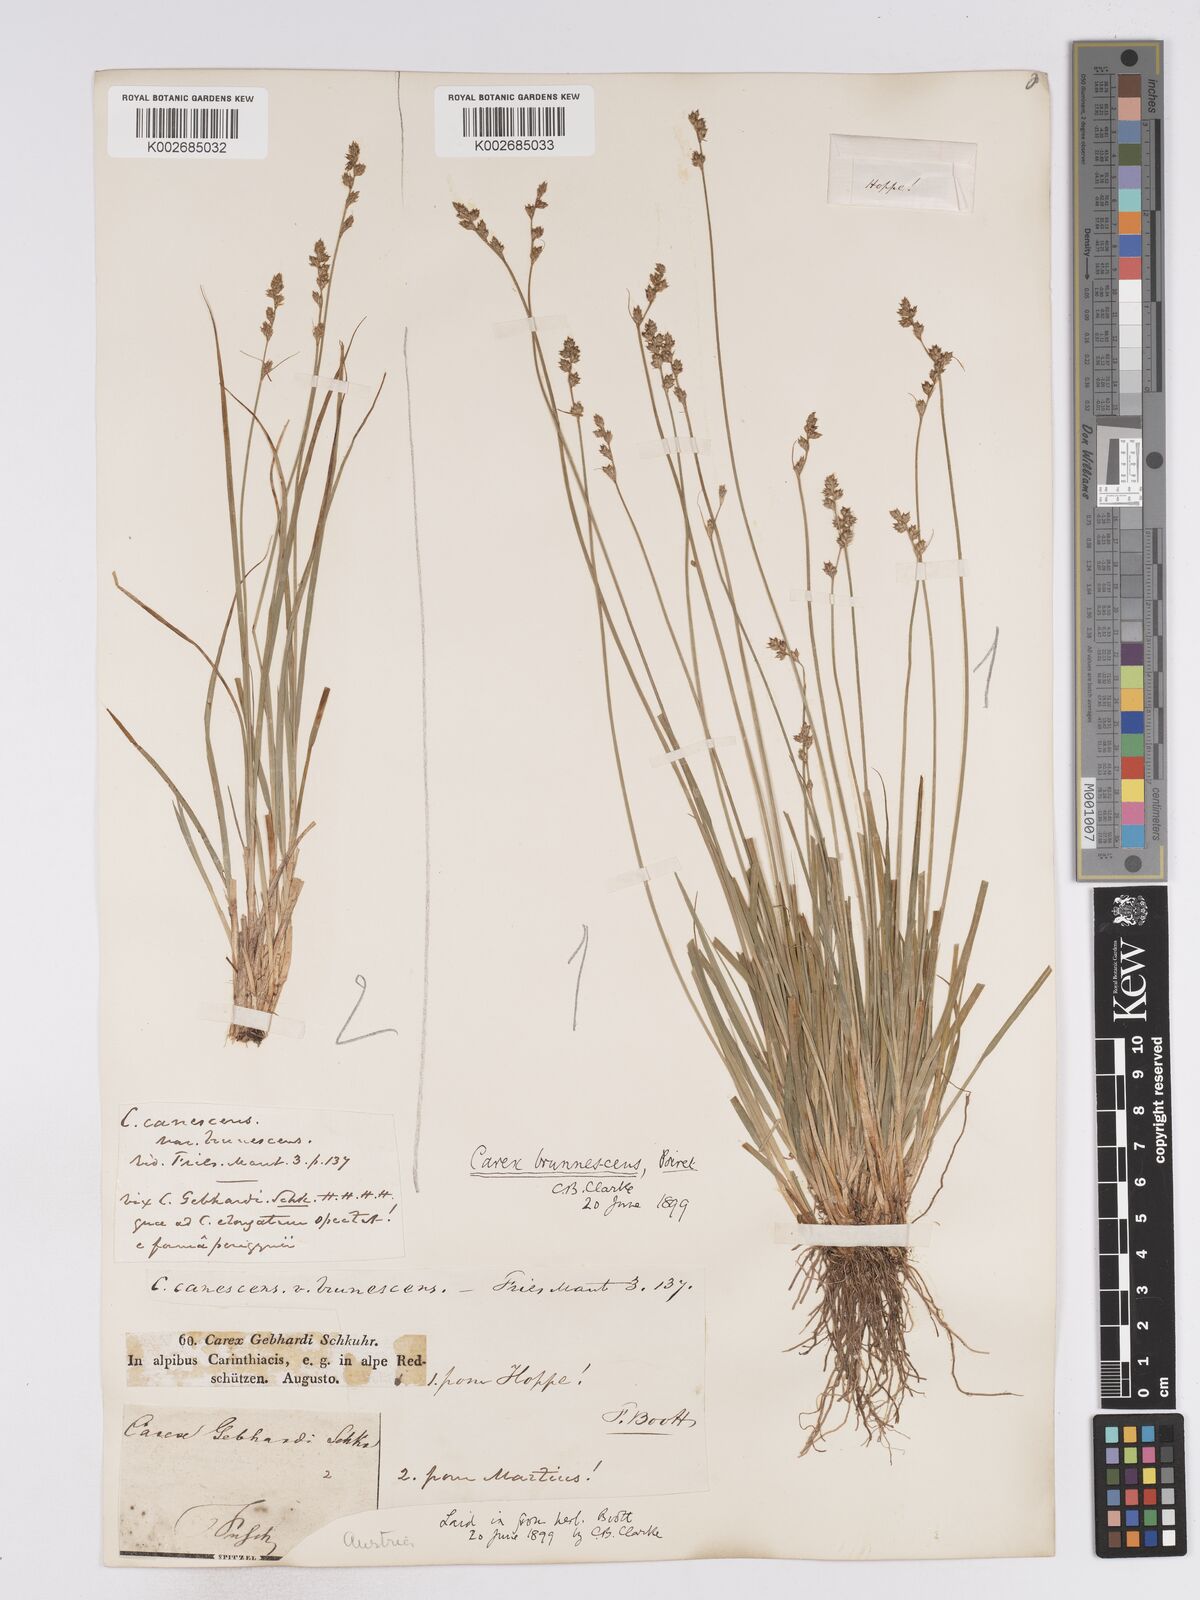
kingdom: Plantae
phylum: Tracheophyta
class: Liliopsida
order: Poales
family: Cyperaceae
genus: Carex
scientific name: Carex brunnescens
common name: Brown sedge
